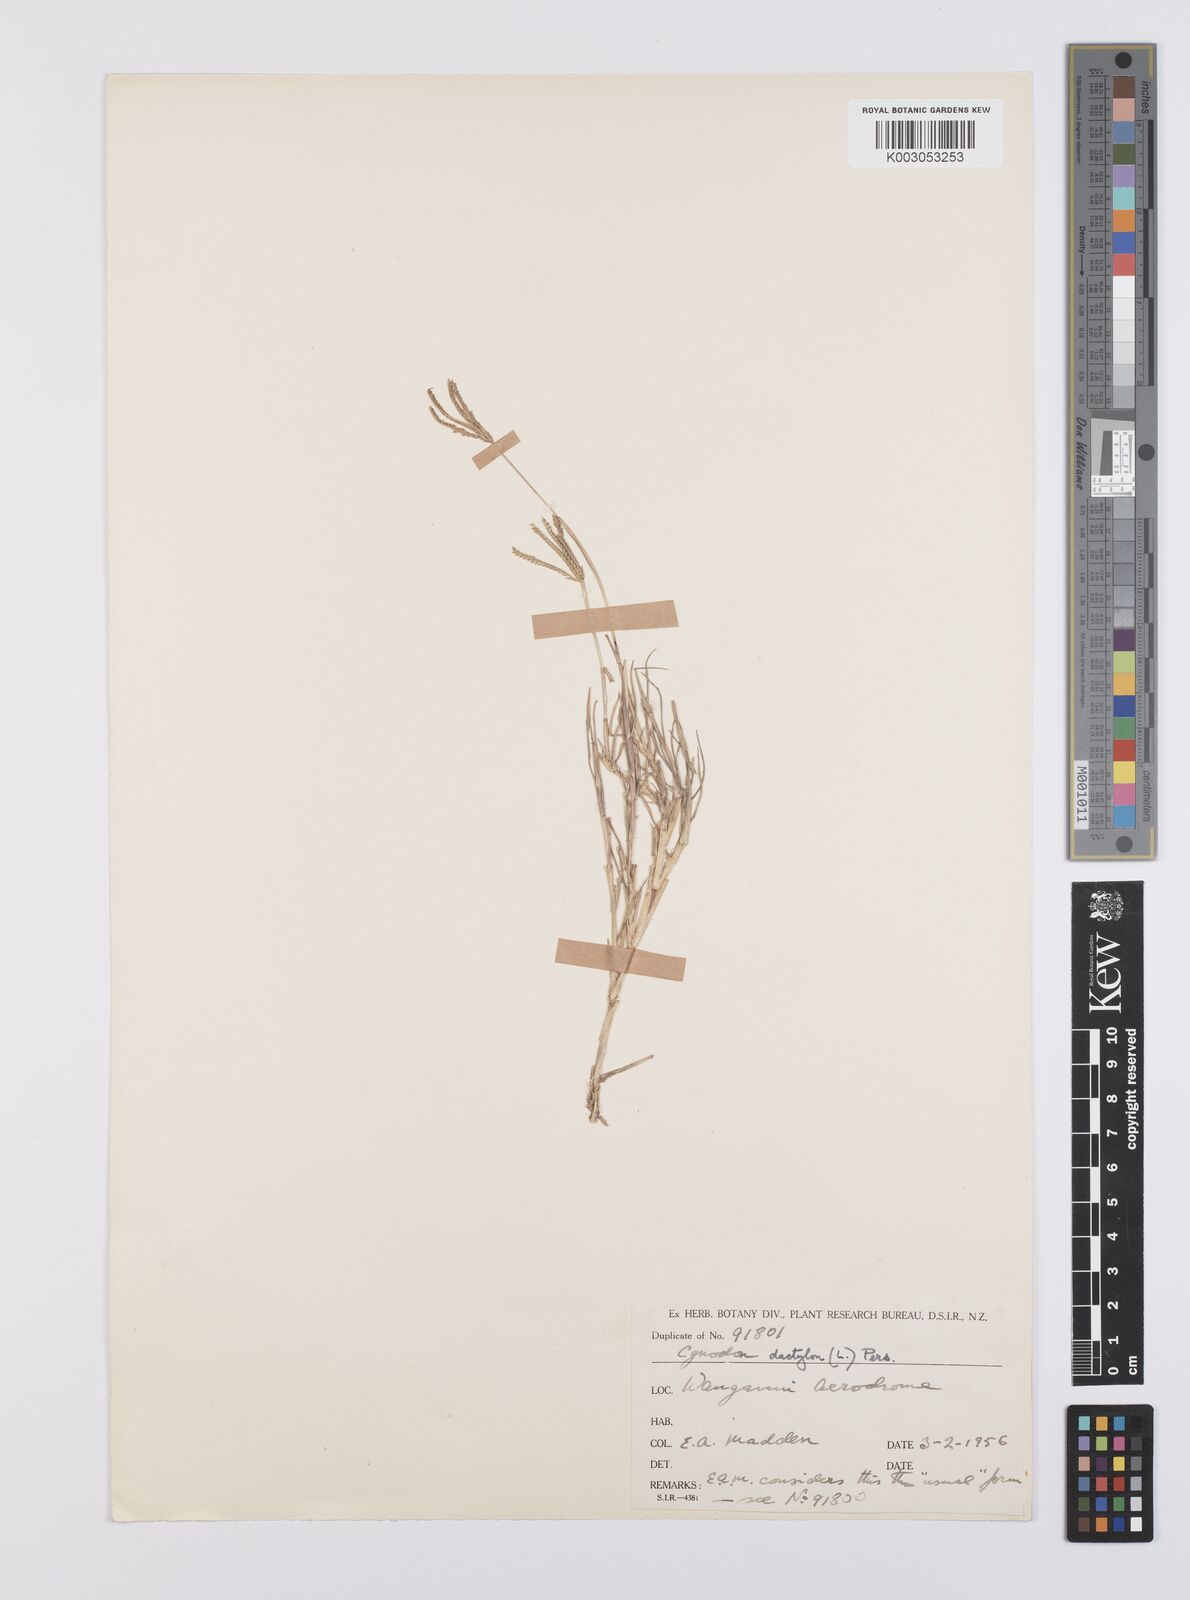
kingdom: Plantae
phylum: Tracheophyta
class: Liliopsida
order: Poales
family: Poaceae
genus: Cynodon
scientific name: Cynodon dactylon
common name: Bermuda grass
